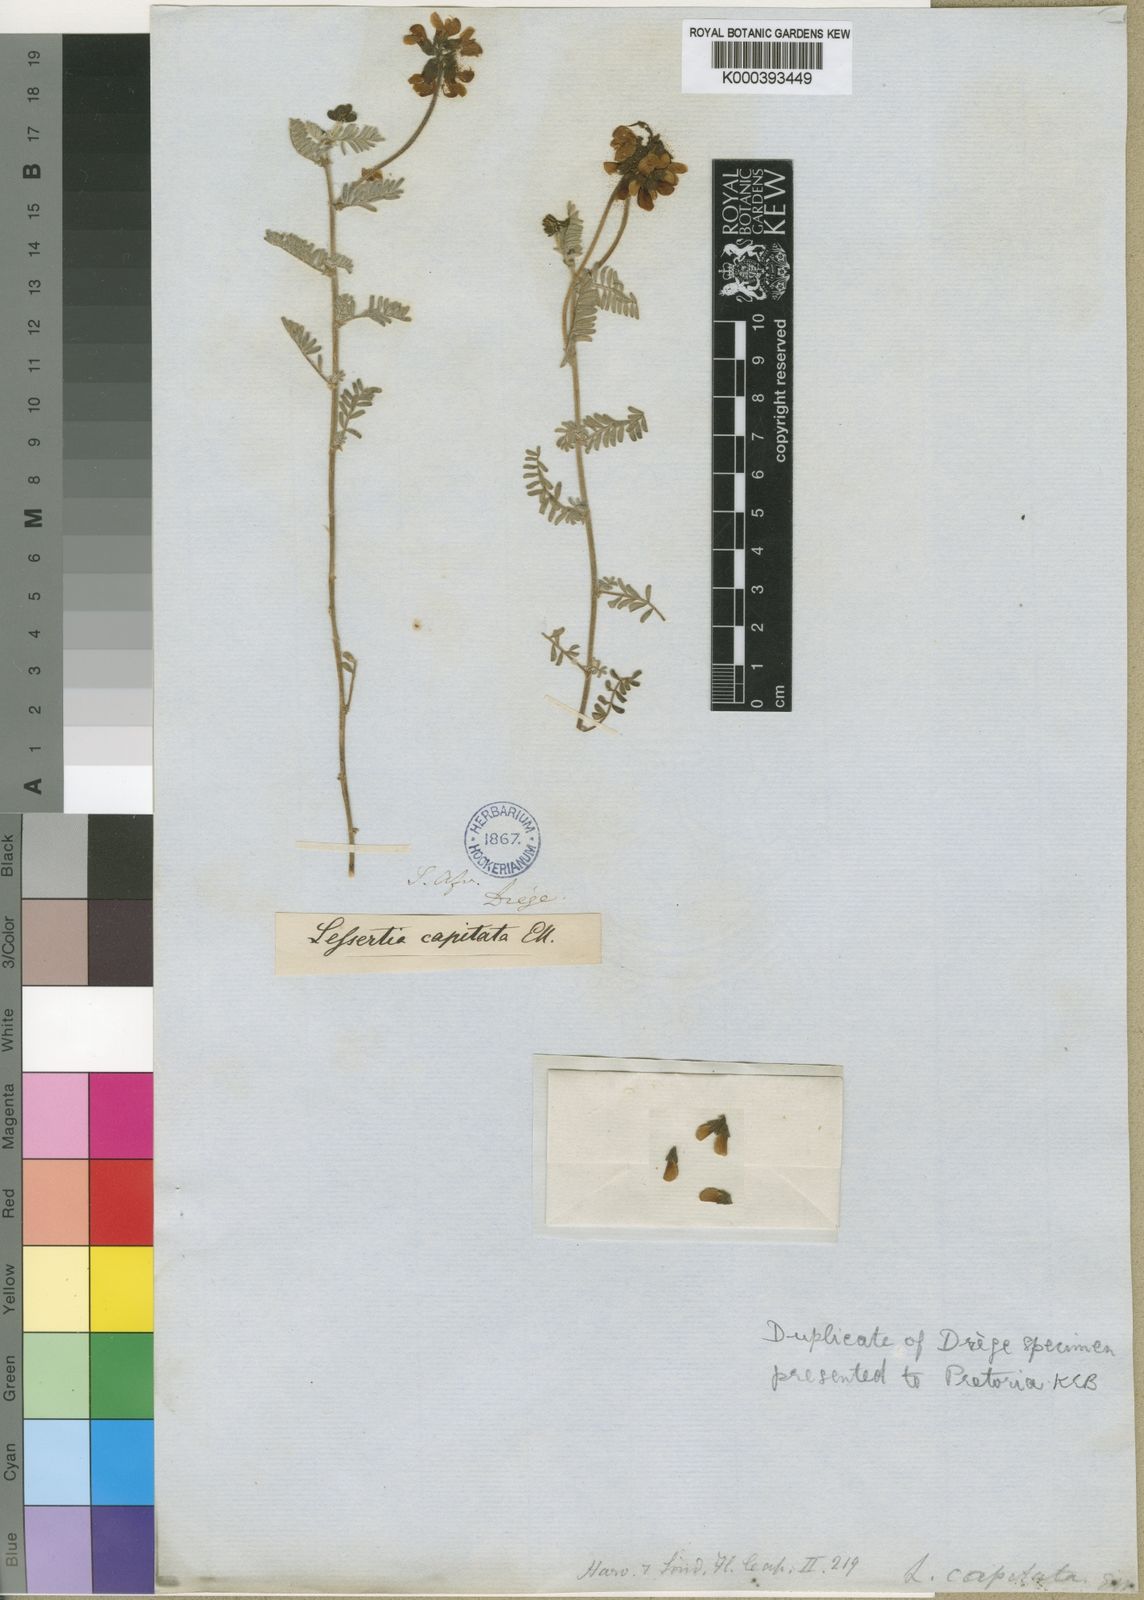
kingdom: Plantae
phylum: Tracheophyta
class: Magnoliopsida
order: Fabales
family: Fabaceae
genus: Lessertia
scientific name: Lessertia capitata
